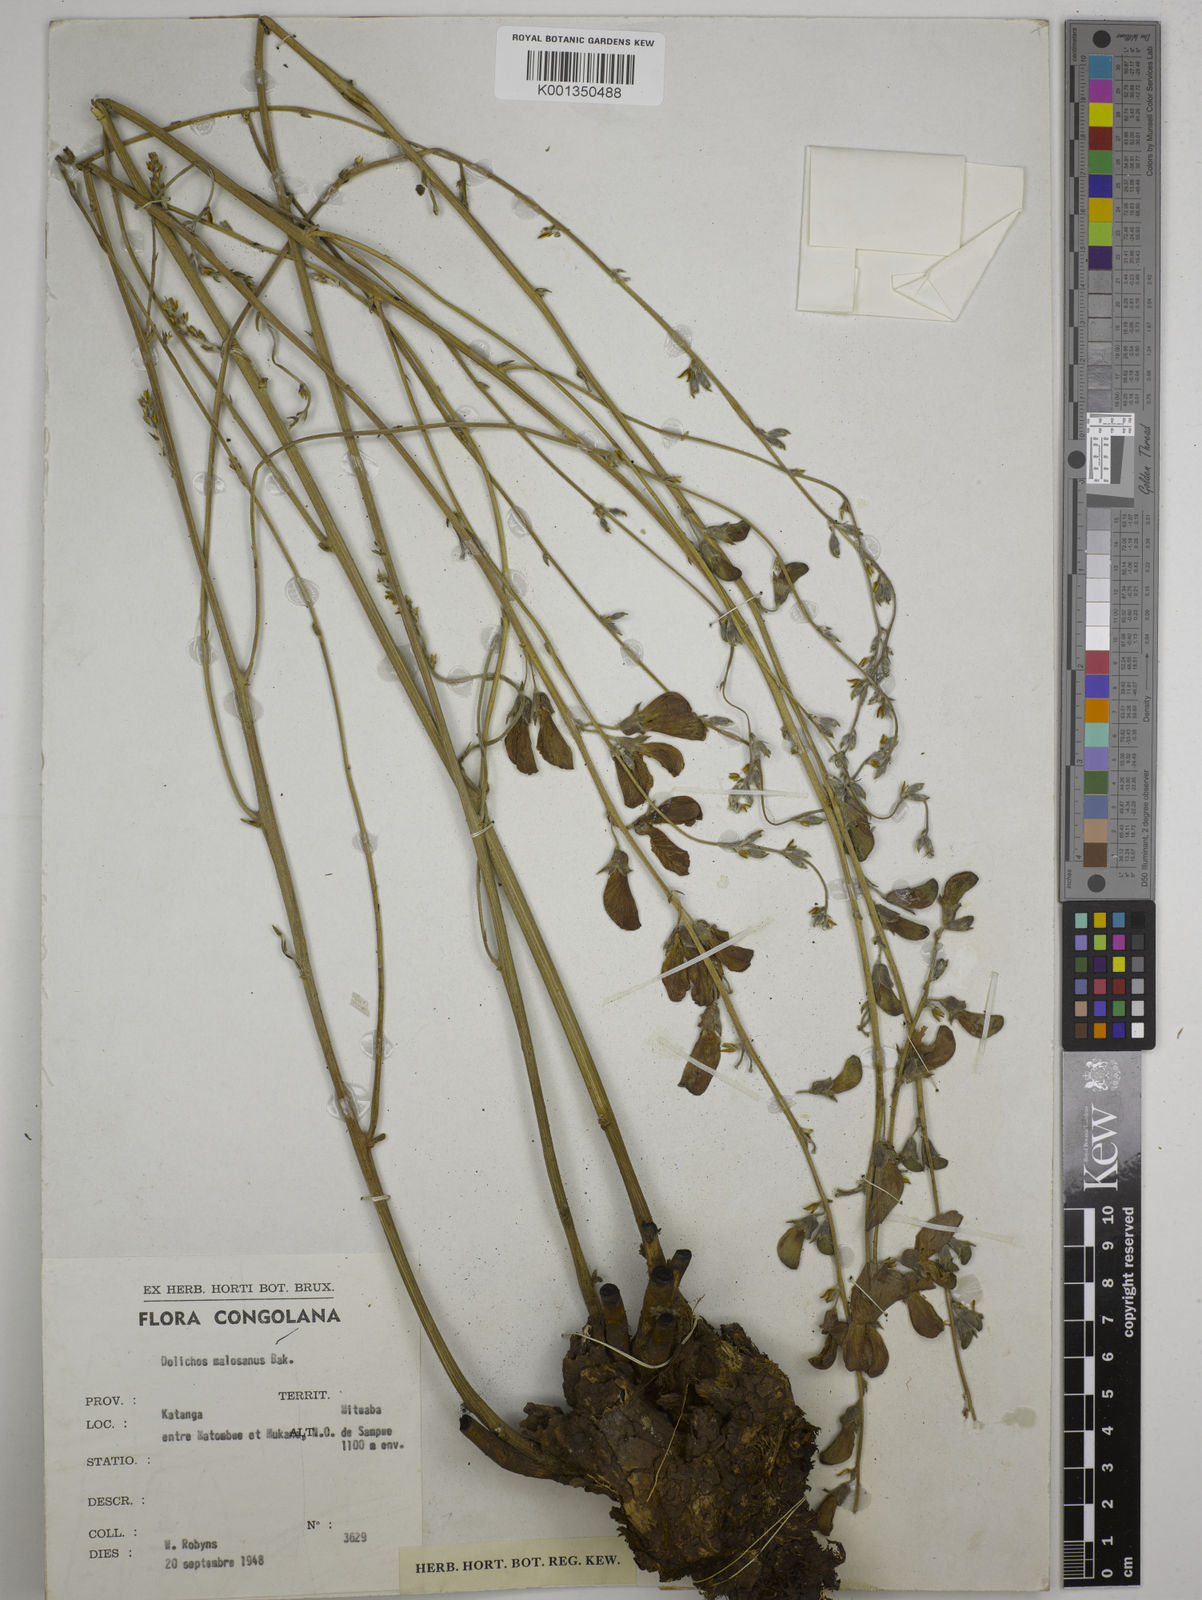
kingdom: Plantae
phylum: Tracheophyta
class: Magnoliopsida
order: Fabales
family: Fabaceae
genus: Dolichos
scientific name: Dolichos kilimandscharicus
